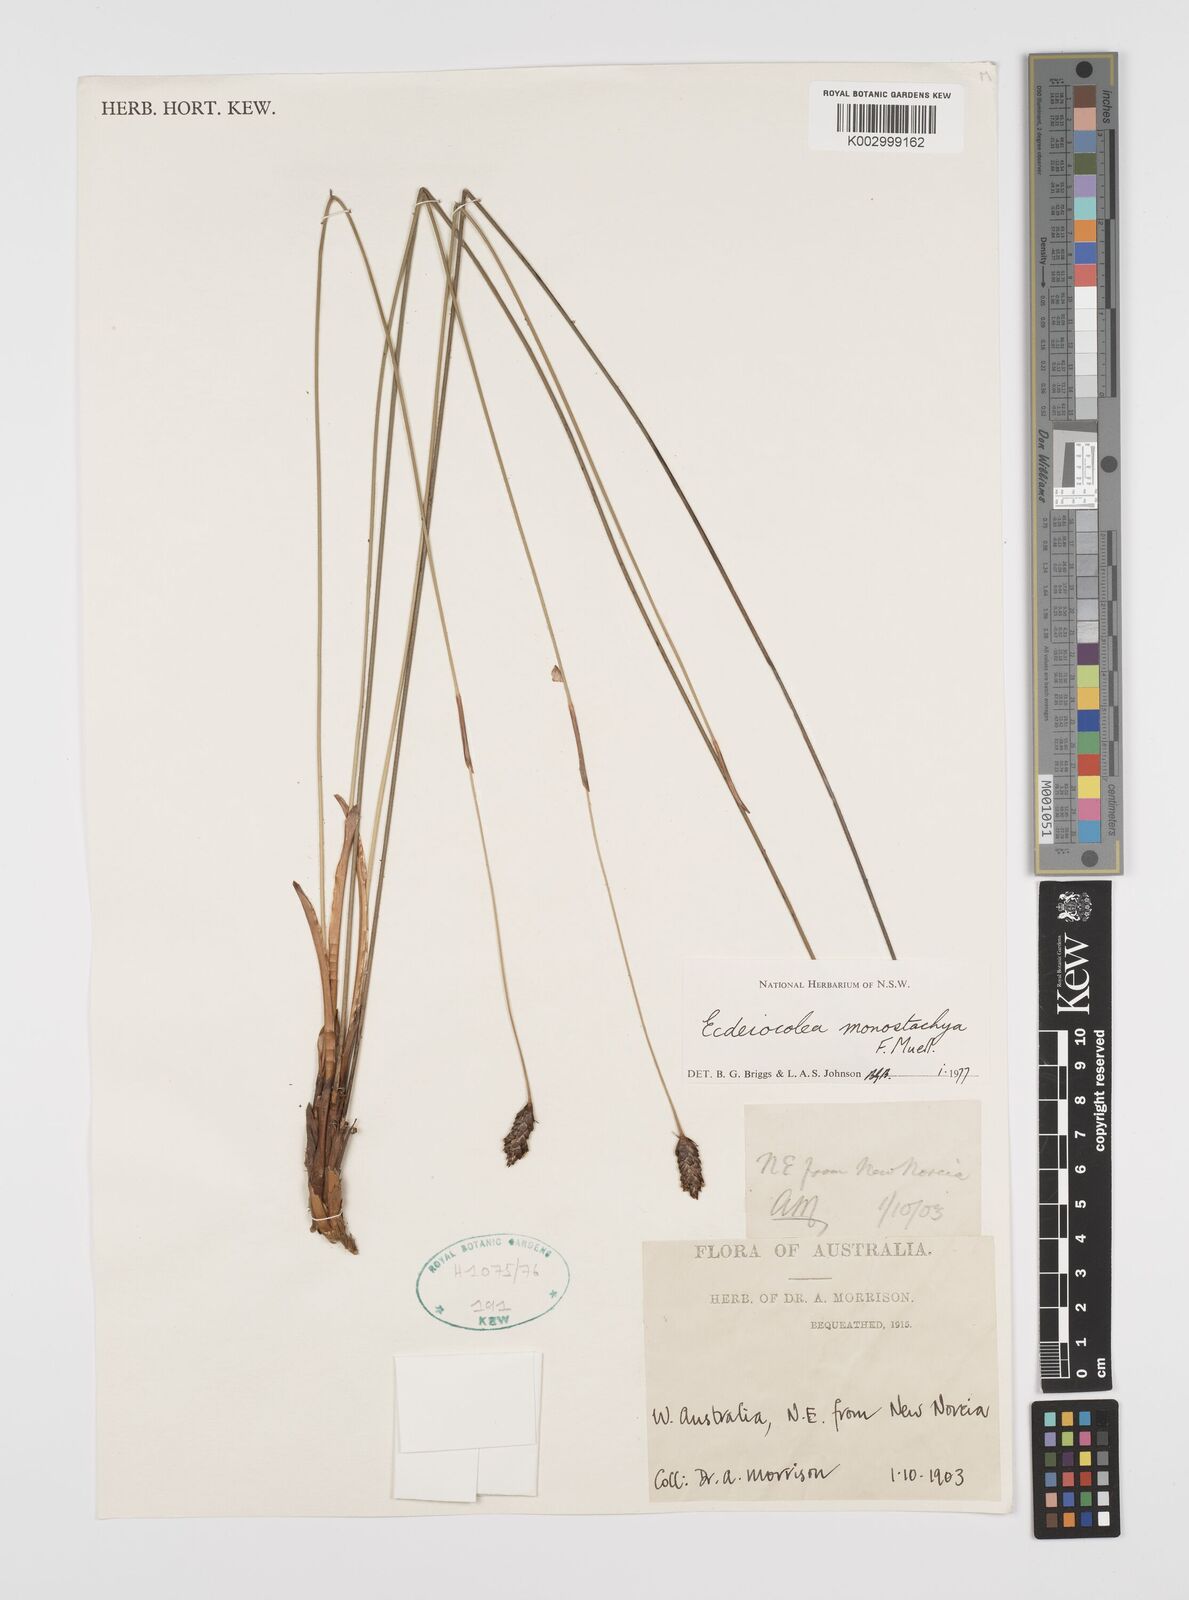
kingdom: Plantae
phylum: Tracheophyta
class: Liliopsida
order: Poales
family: Ecdeiocoleaceae
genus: Ecdeiocolea
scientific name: Ecdeiocolea monostachya
